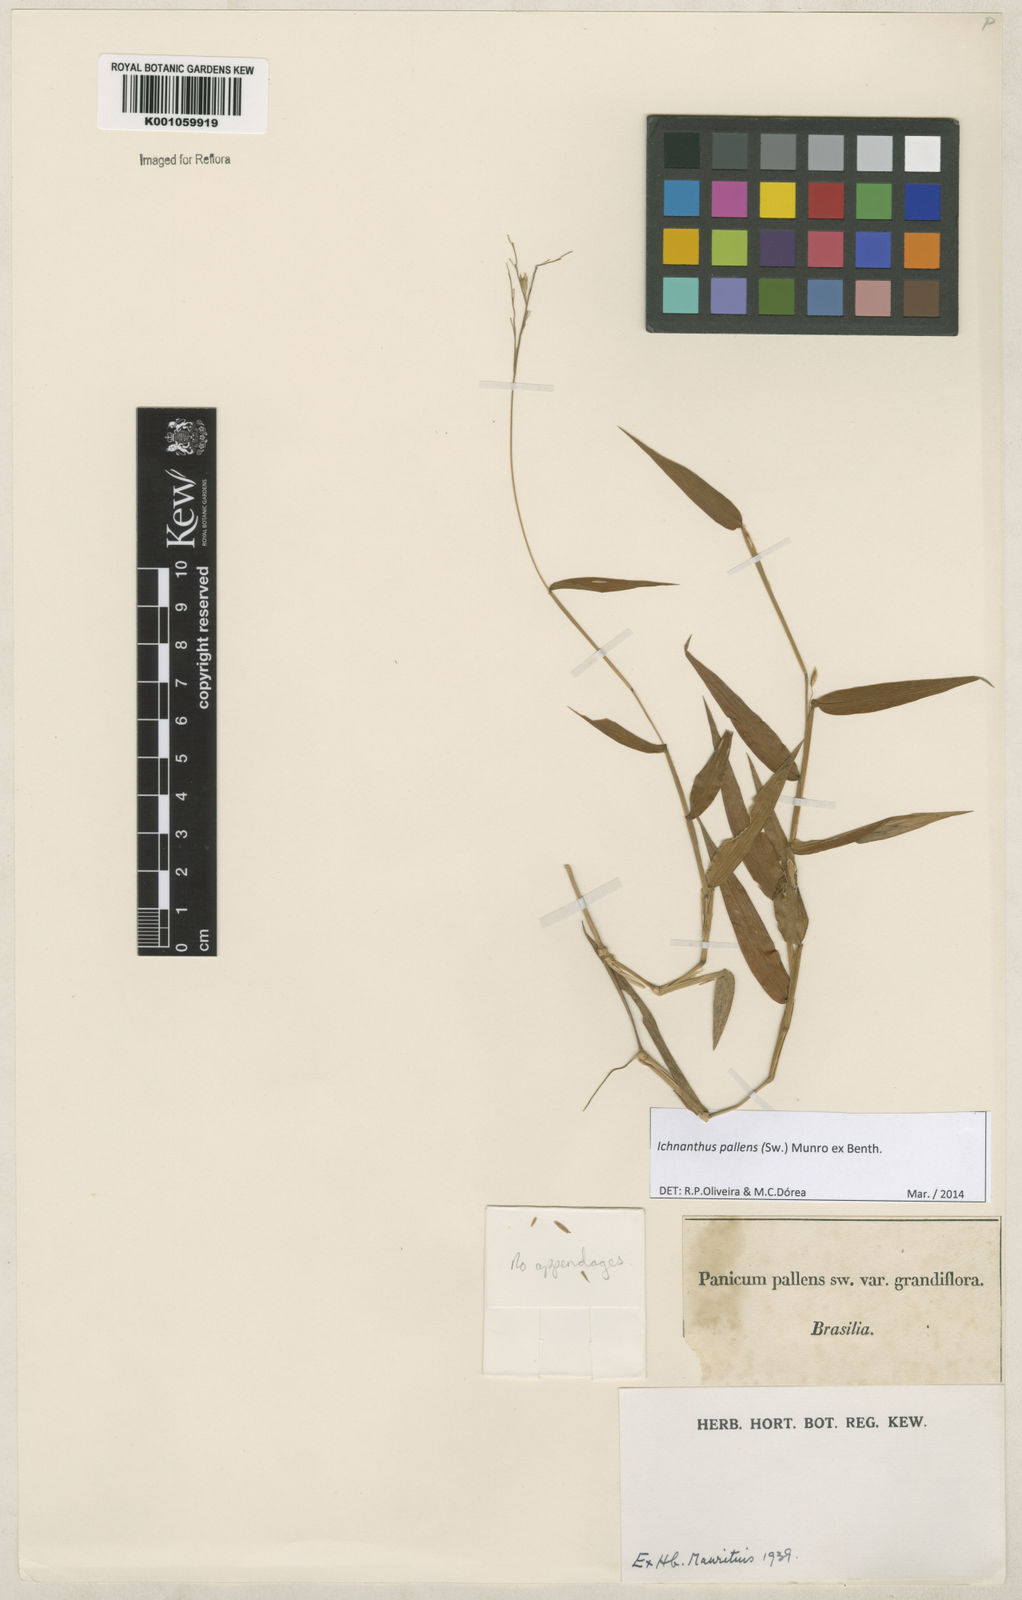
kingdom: Plantae
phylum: Tracheophyta
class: Liliopsida
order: Poales
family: Poaceae
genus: Ichnanthus
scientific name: Ichnanthus pallens
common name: Water grass
